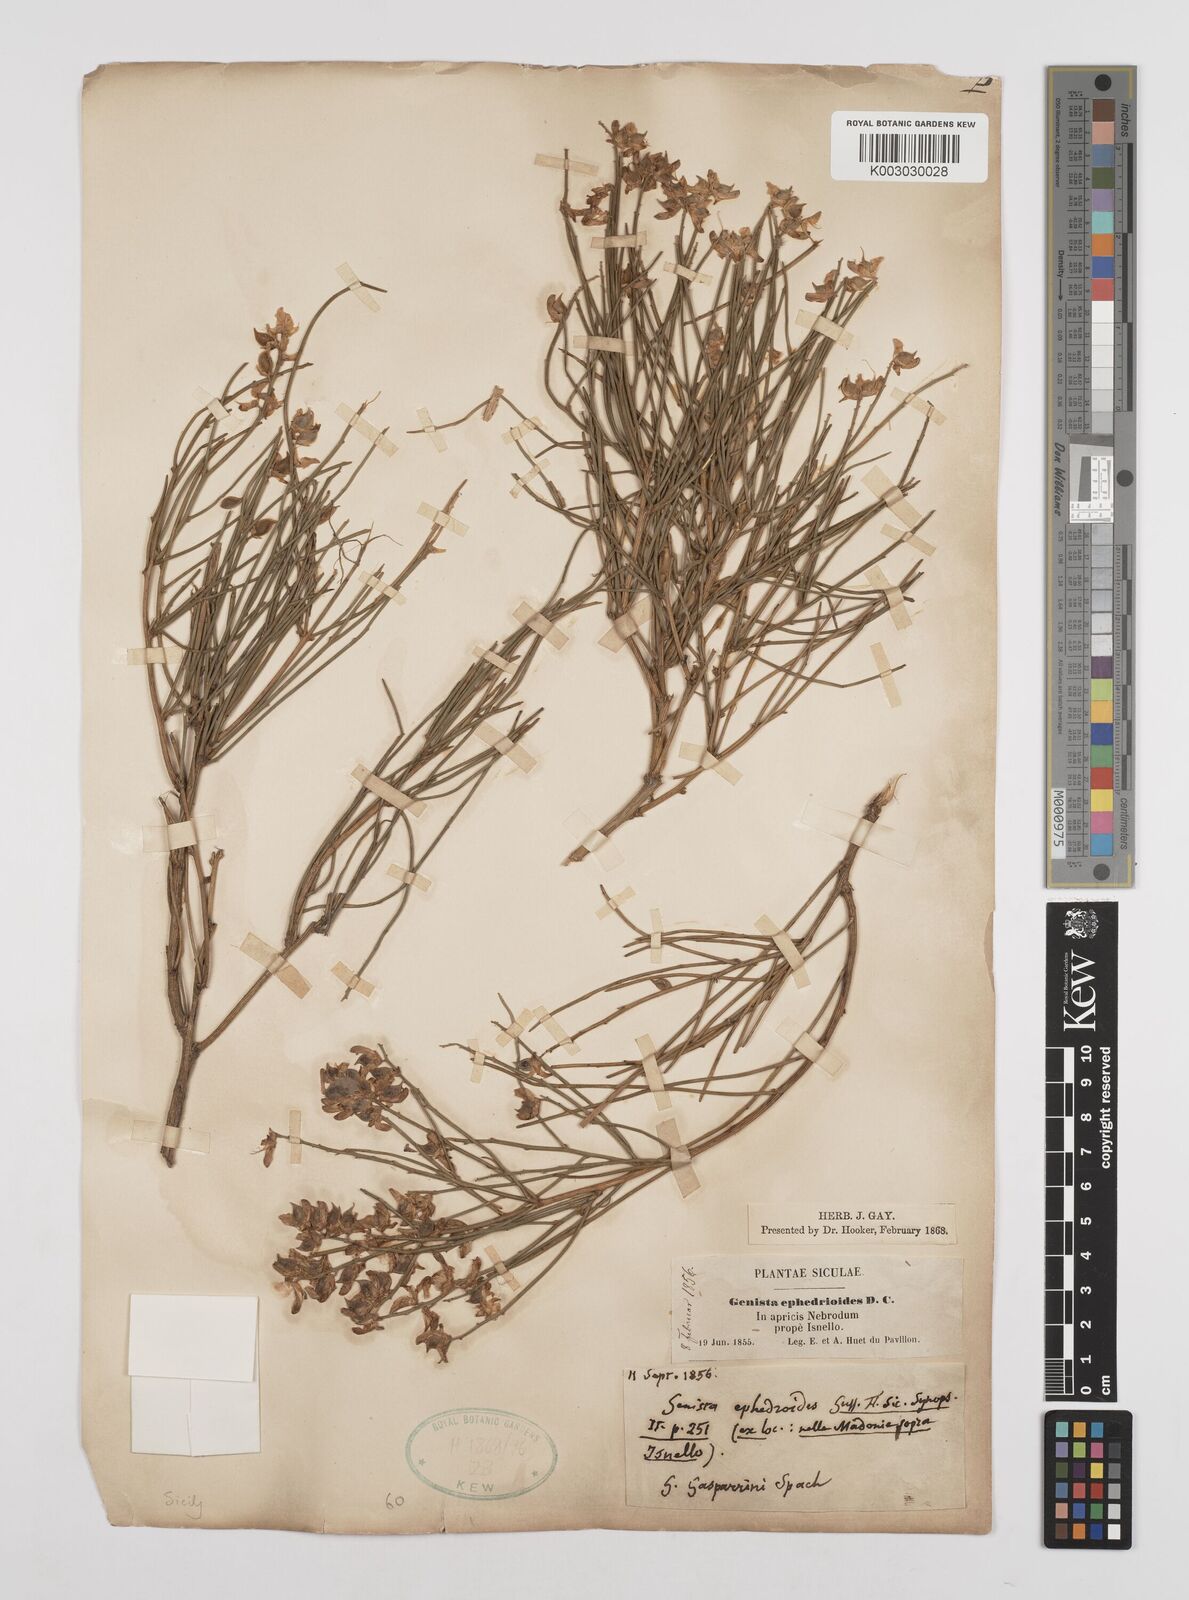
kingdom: Plantae
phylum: Tracheophyta
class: Magnoliopsida
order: Fabales
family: Fabaceae
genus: Genista
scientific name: Genista ephedroides
